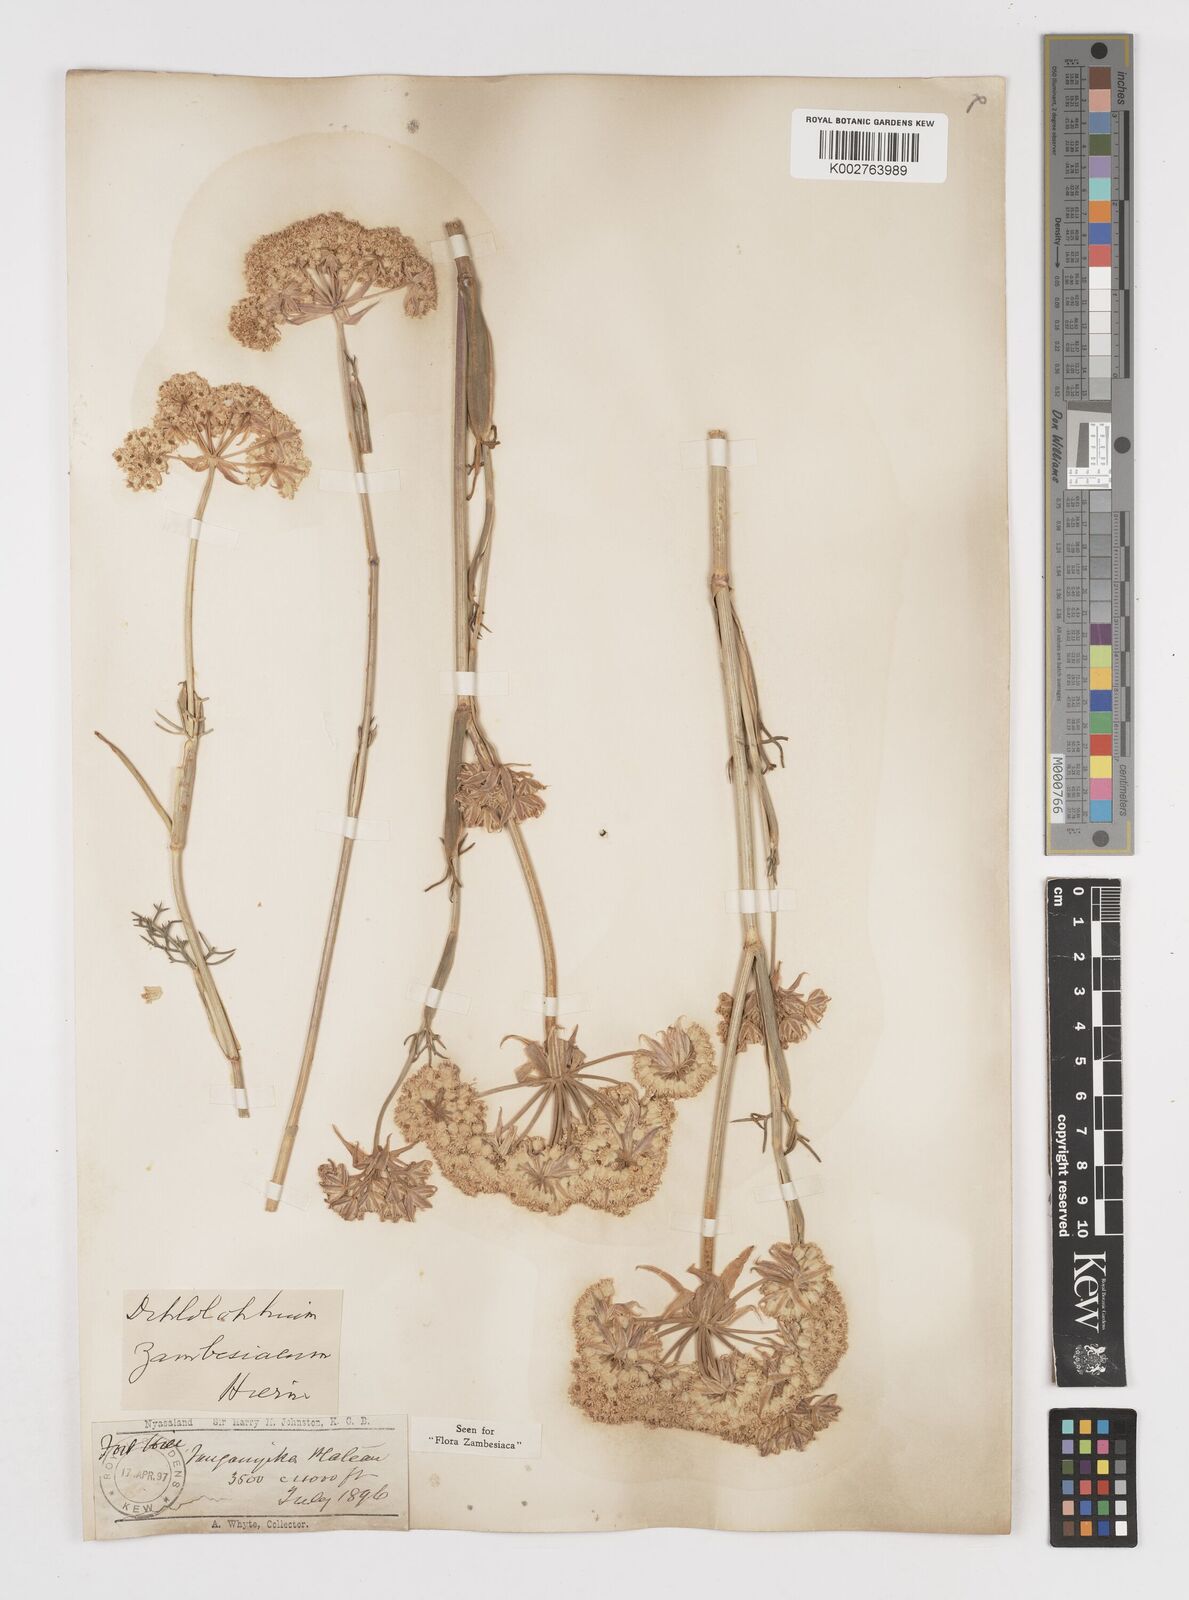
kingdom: Plantae
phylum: Tracheophyta
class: Magnoliopsida
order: Apiales
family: Apiaceae
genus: Diplolophium
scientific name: Diplolophium zambesianum
